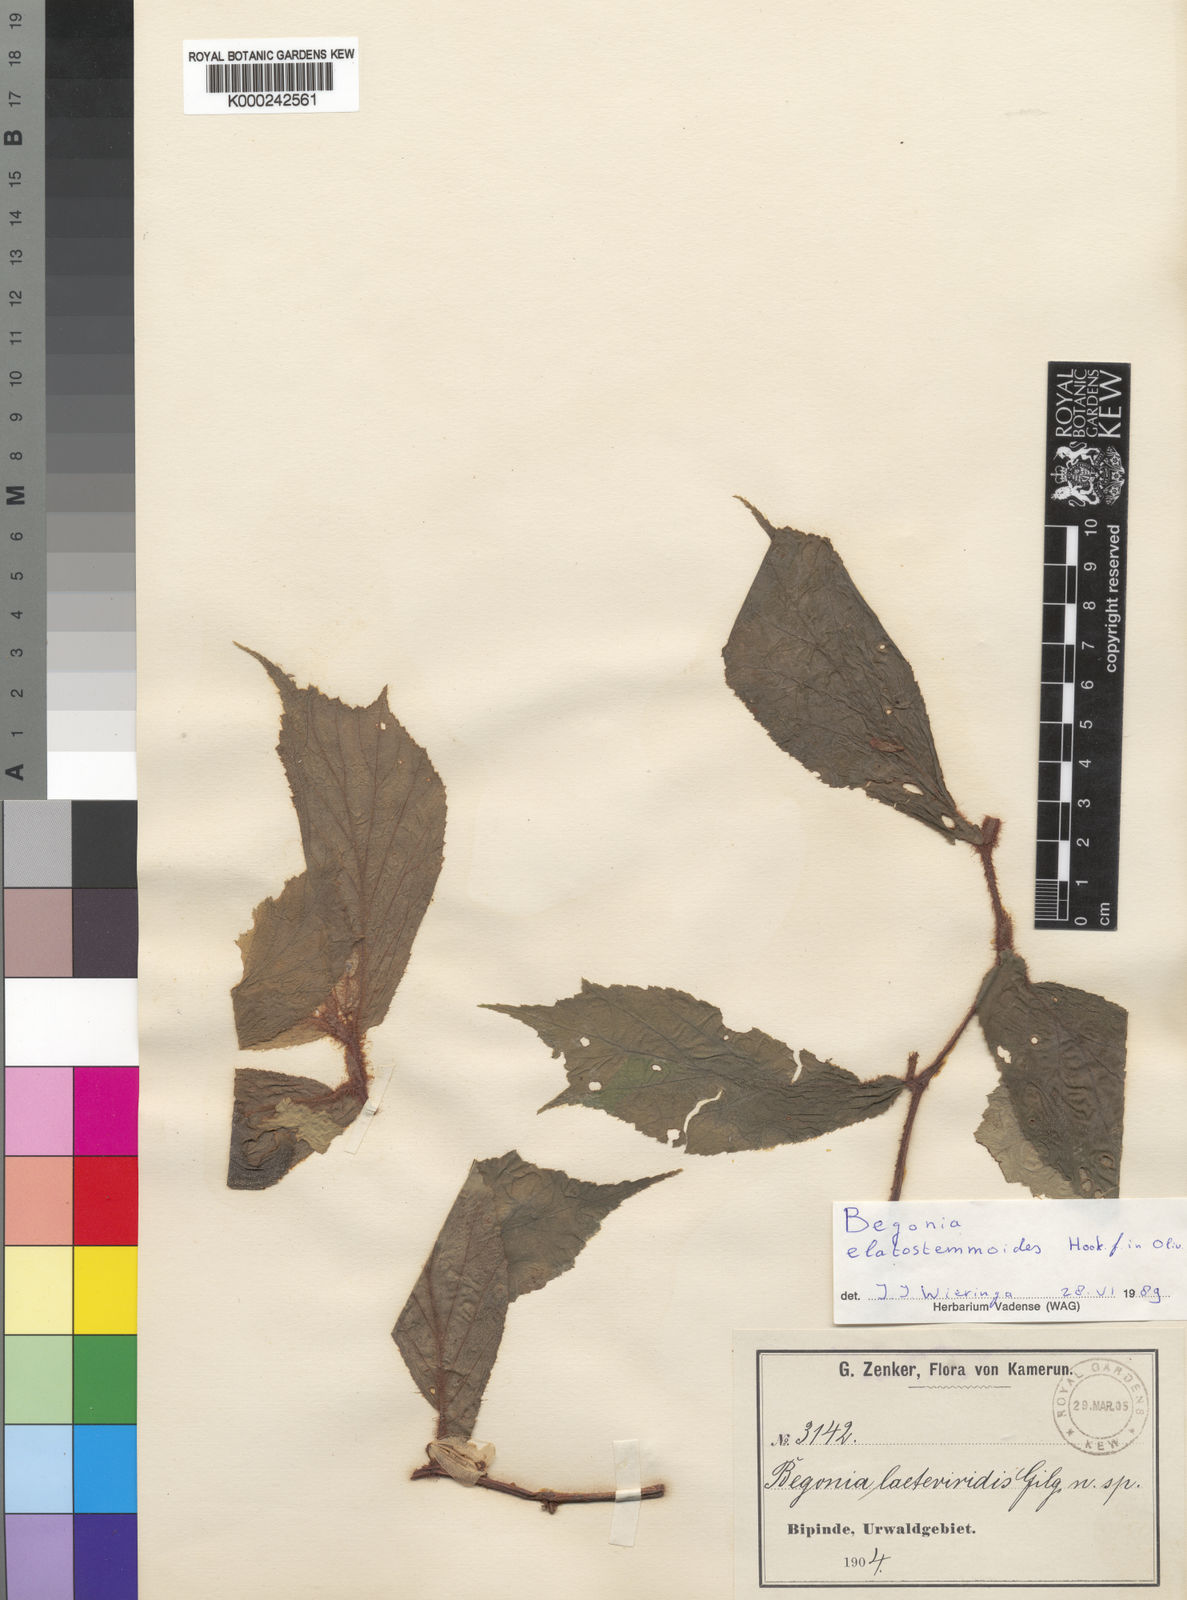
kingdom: Plantae
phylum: Tracheophyta
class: Magnoliopsida
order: Cucurbitales
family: Begoniaceae
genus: Begonia
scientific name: Begonia elatostemmoides
